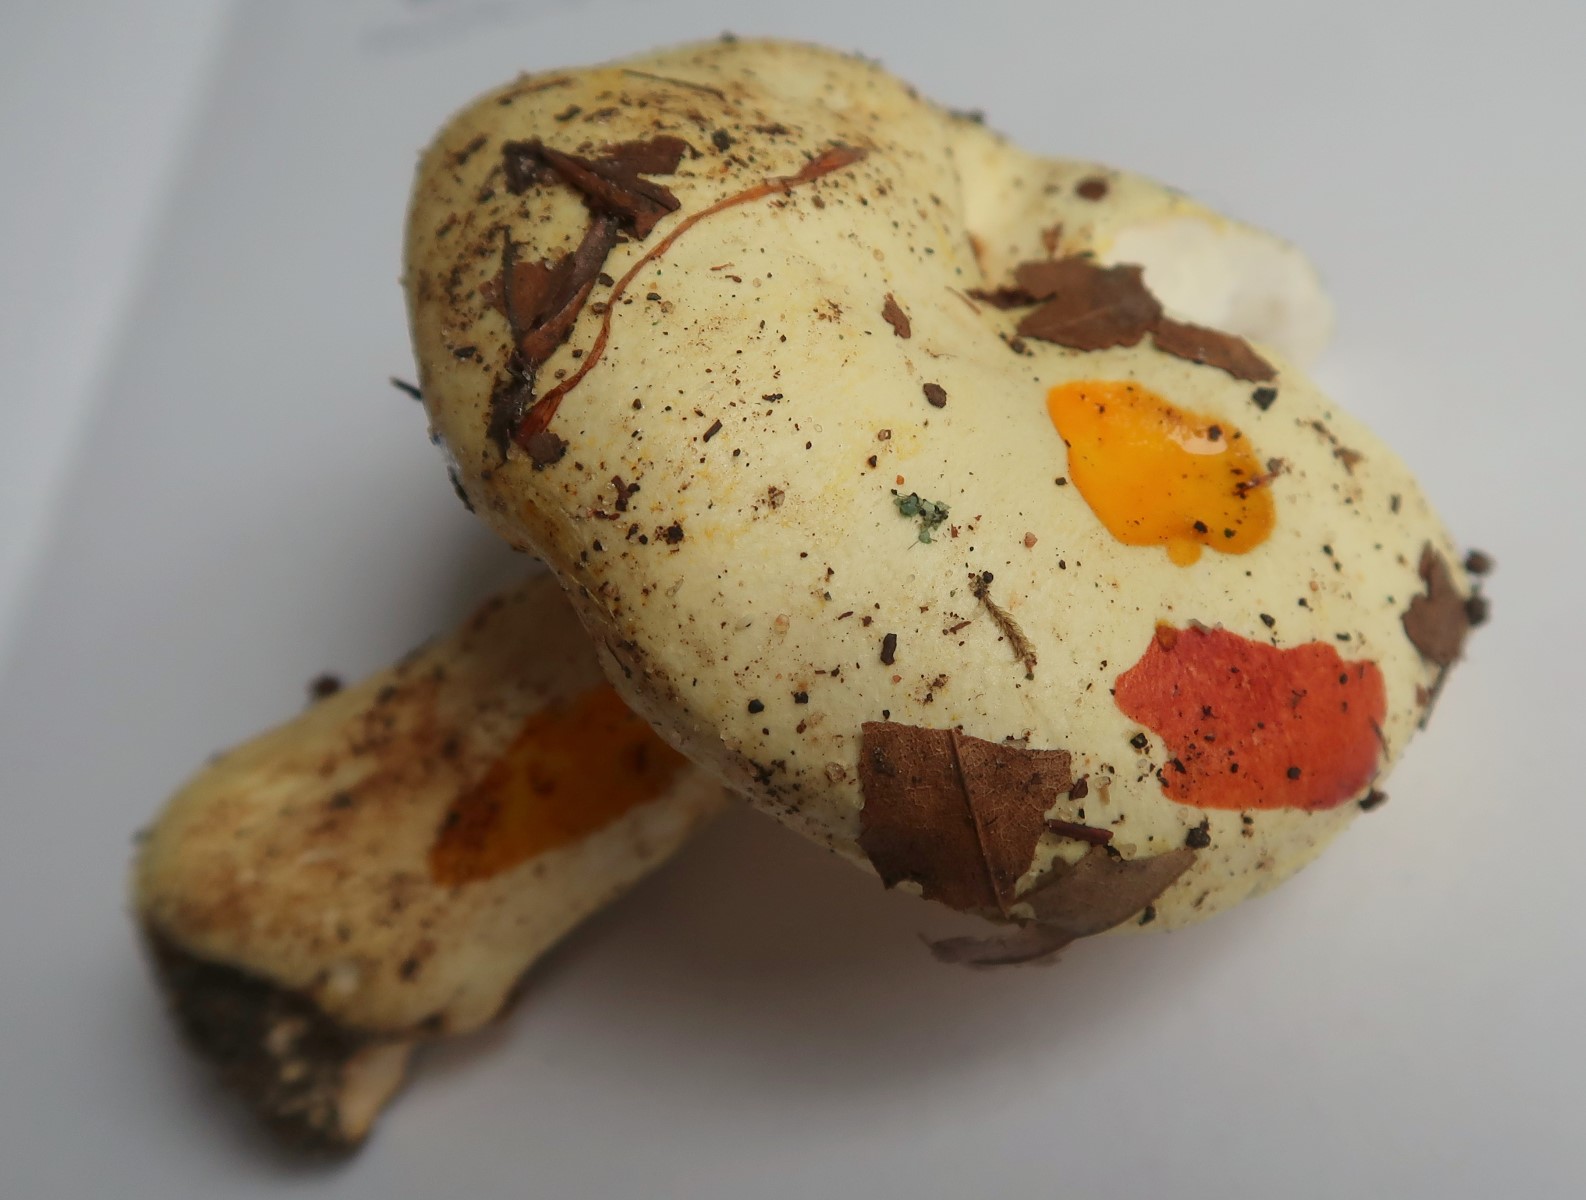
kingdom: Fungi
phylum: Basidiomycota
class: Agaricomycetes
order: Agaricales
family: Hygrophoraceae
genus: Hygrophorus
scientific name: Hygrophorus chrysodon
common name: gulfnugget sneglehat
